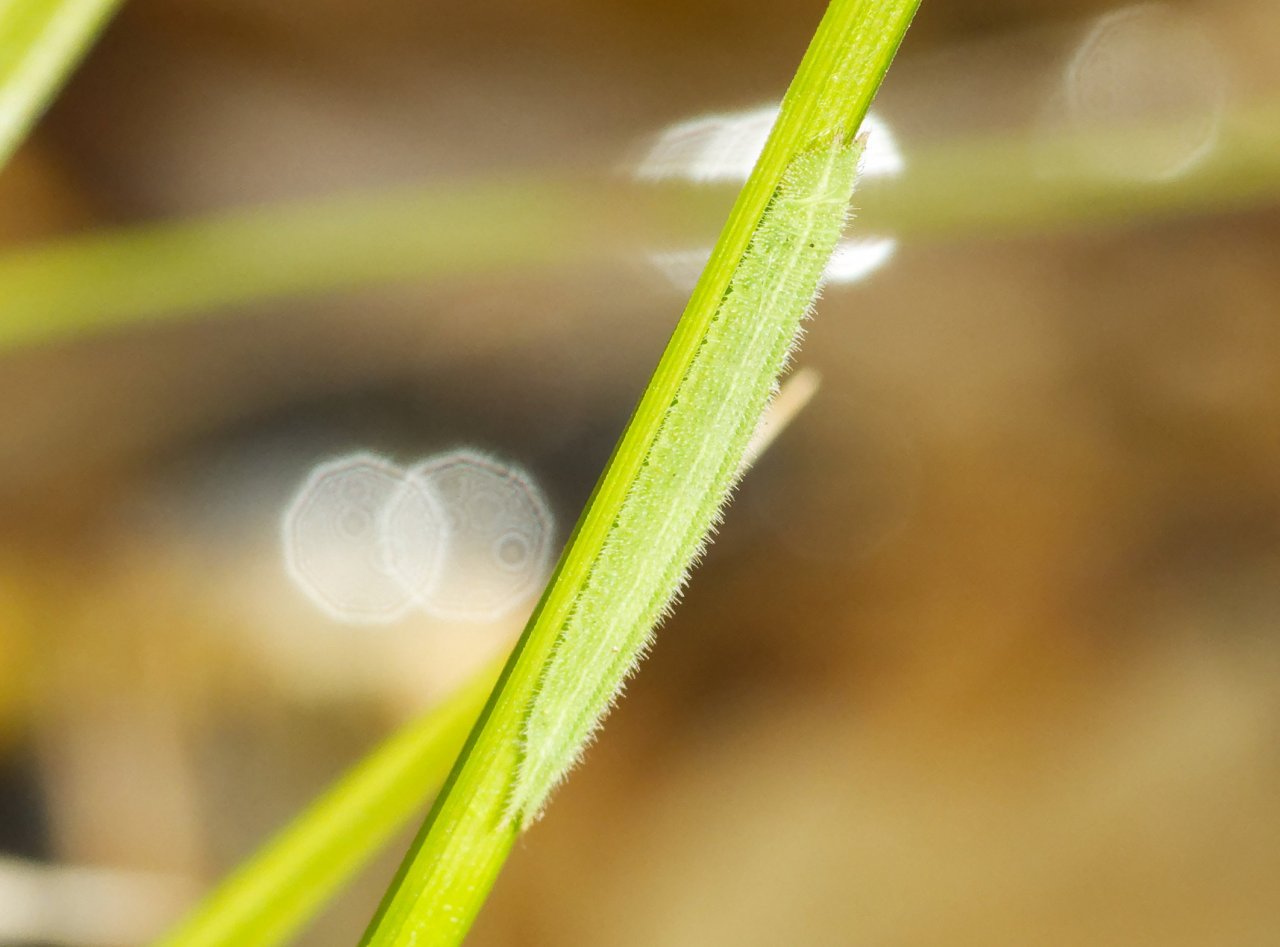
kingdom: Animalia
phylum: Arthropoda
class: Insecta
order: Lepidoptera
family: Nymphalidae
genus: Lethe
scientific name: Lethe anthedon
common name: Northern Pearly-Eye
